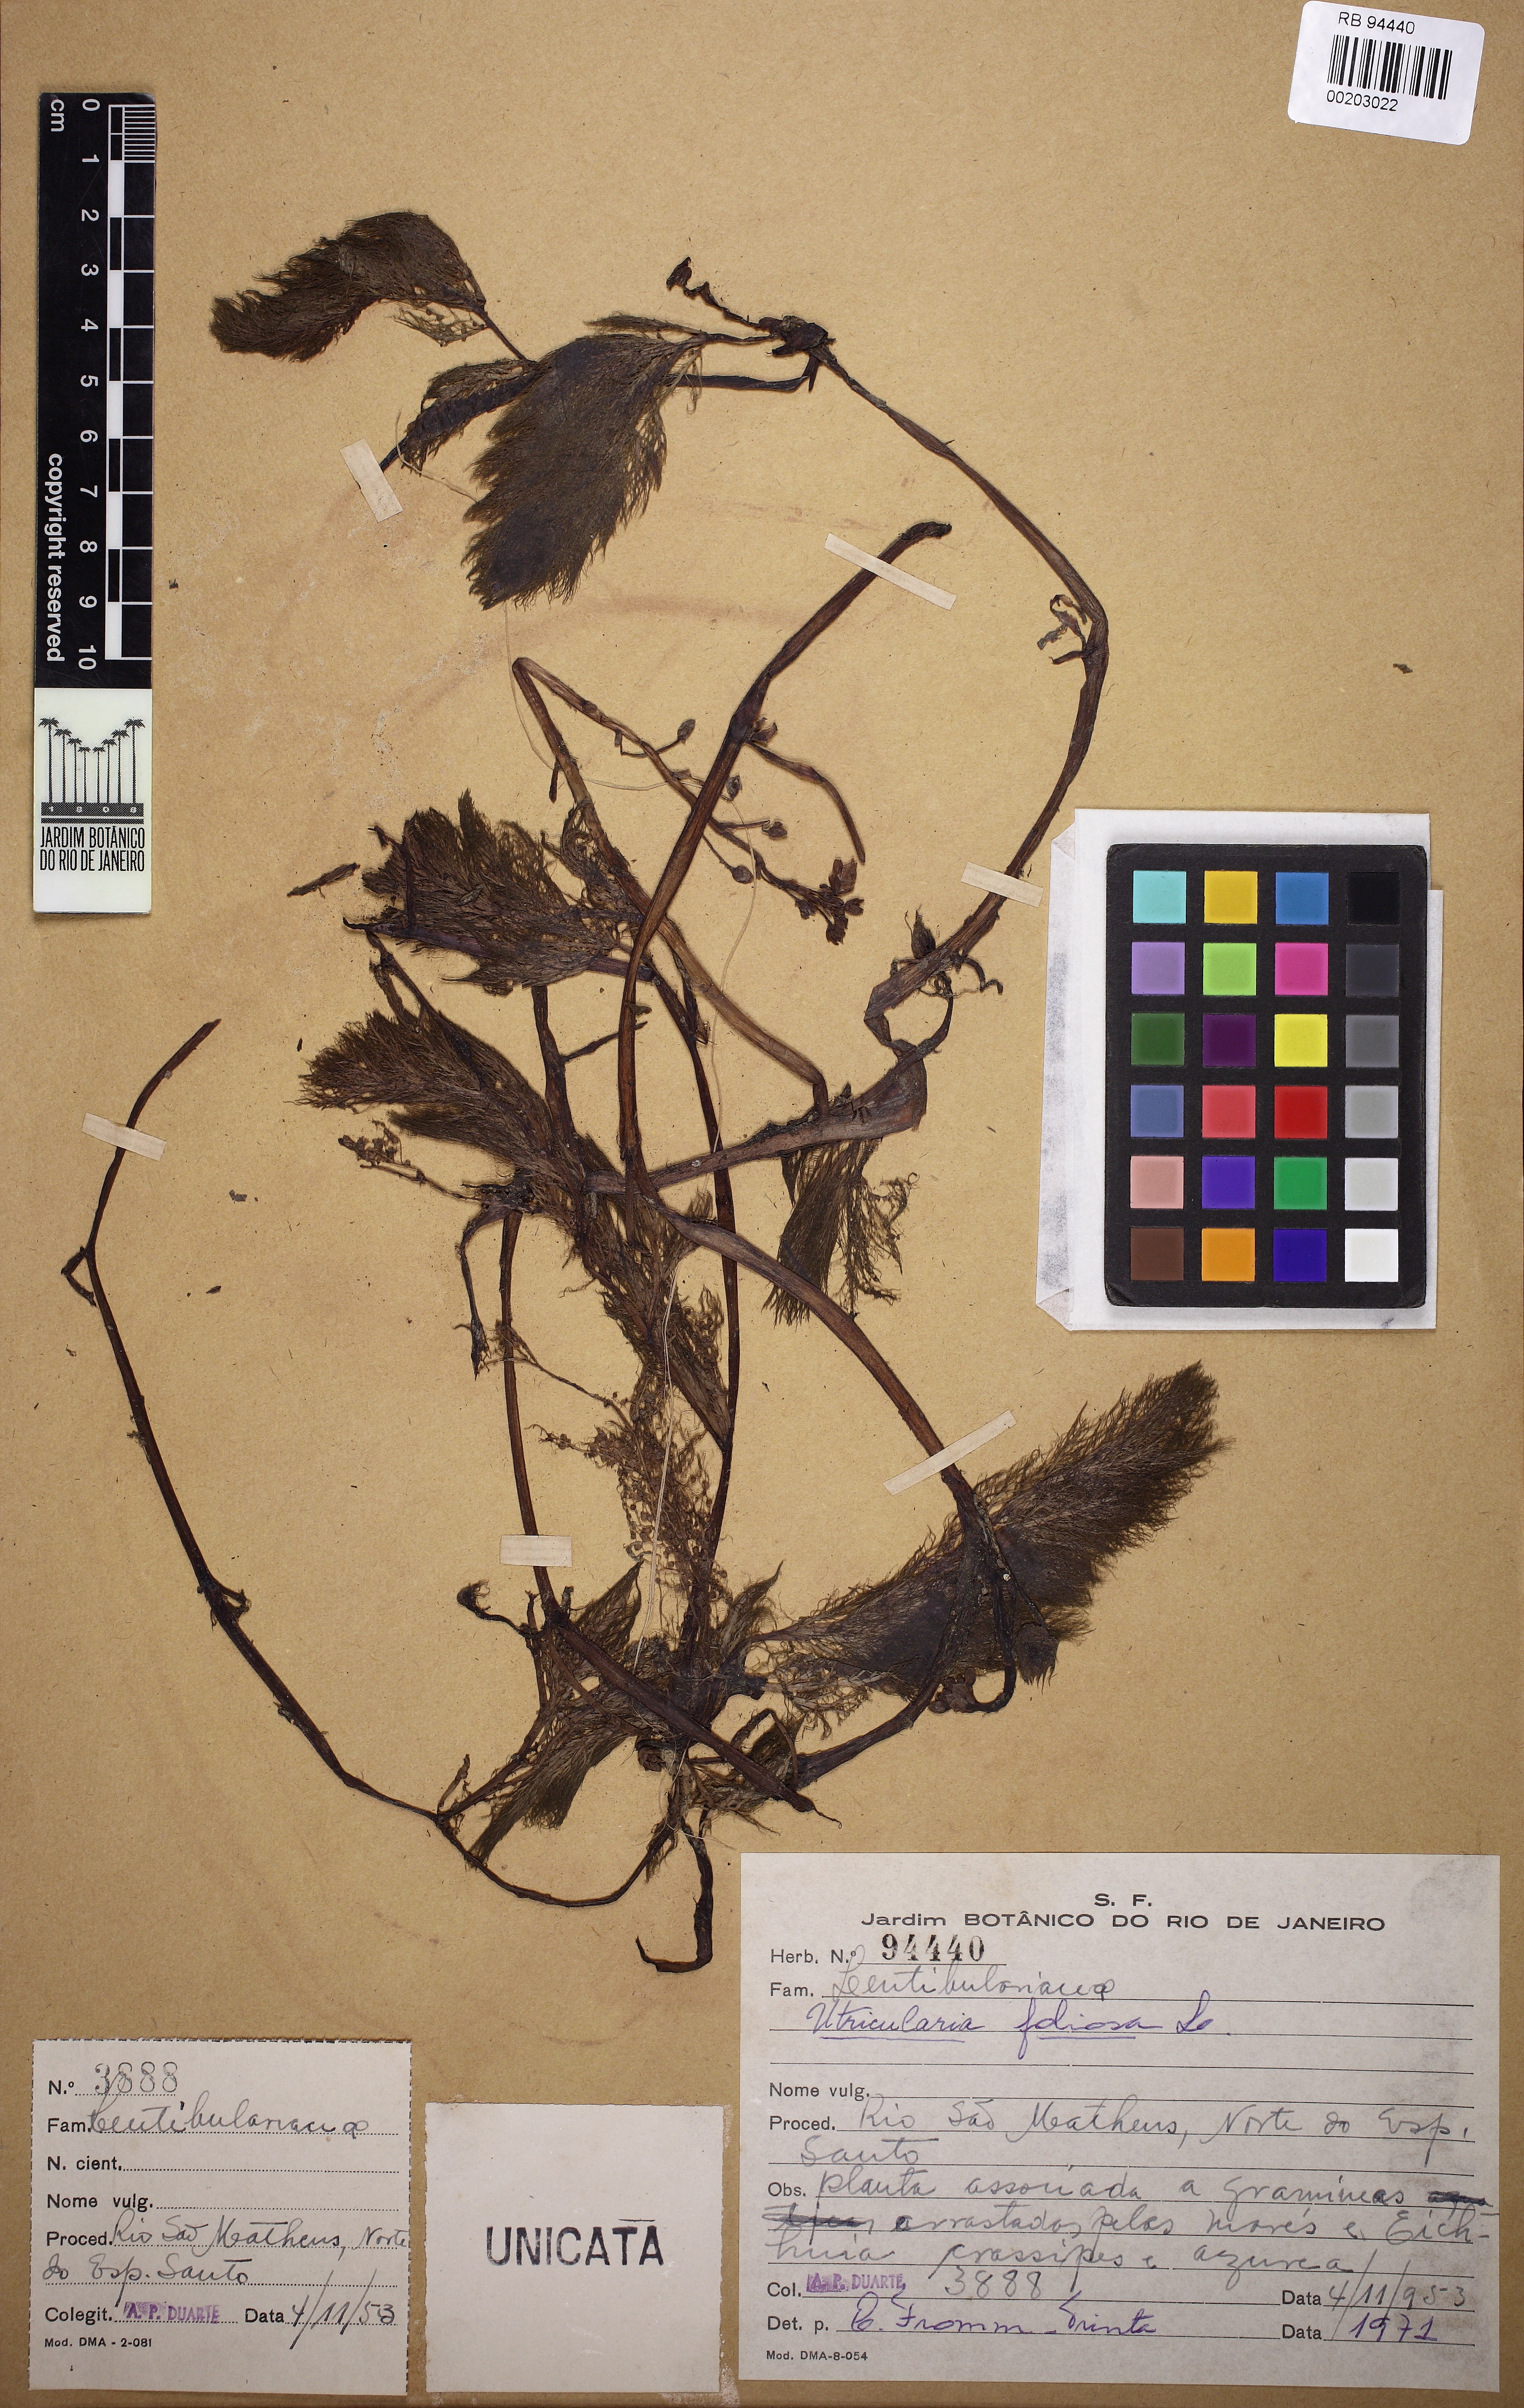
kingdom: Plantae
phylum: Tracheophyta
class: Magnoliopsida
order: Lamiales
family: Lentibulariaceae
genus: Utricularia
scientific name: Utricularia foliosa
